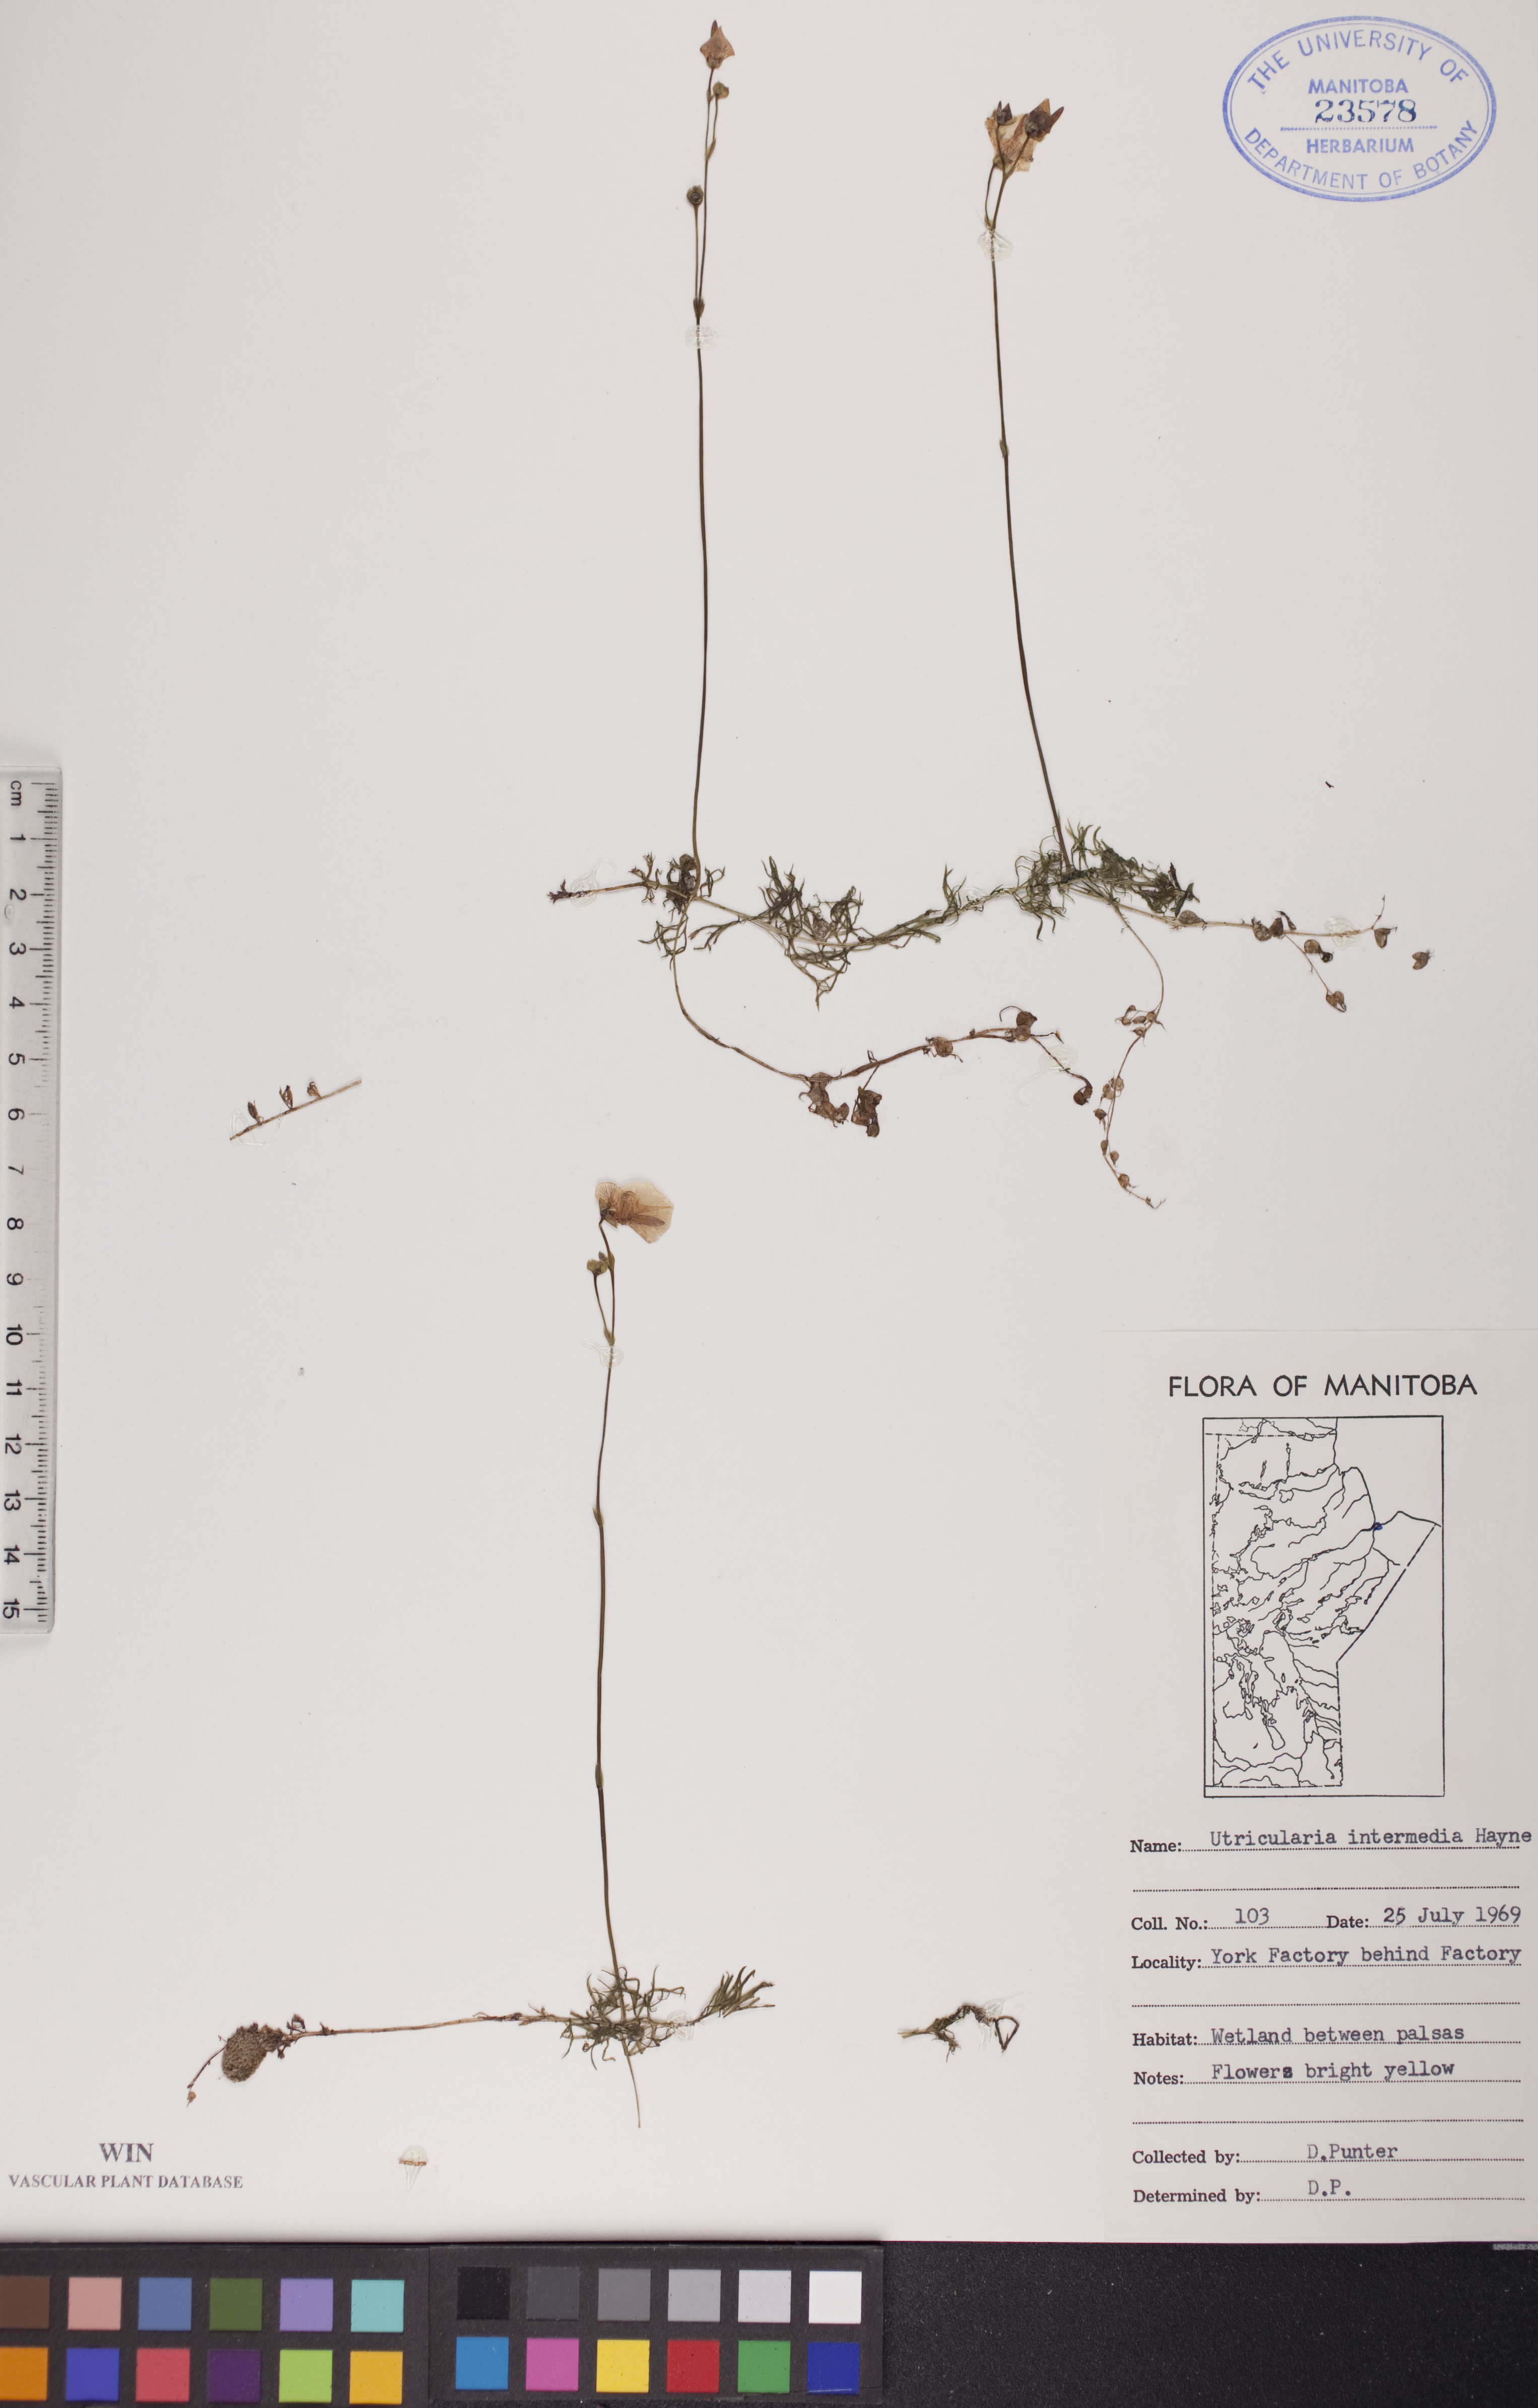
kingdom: Plantae
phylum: Tracheophyta
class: Magnoliopsida
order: Lamiales
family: Lentibulariaceae
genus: Utricularia
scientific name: Utricularia intermedia
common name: Intermediate bladderwort
